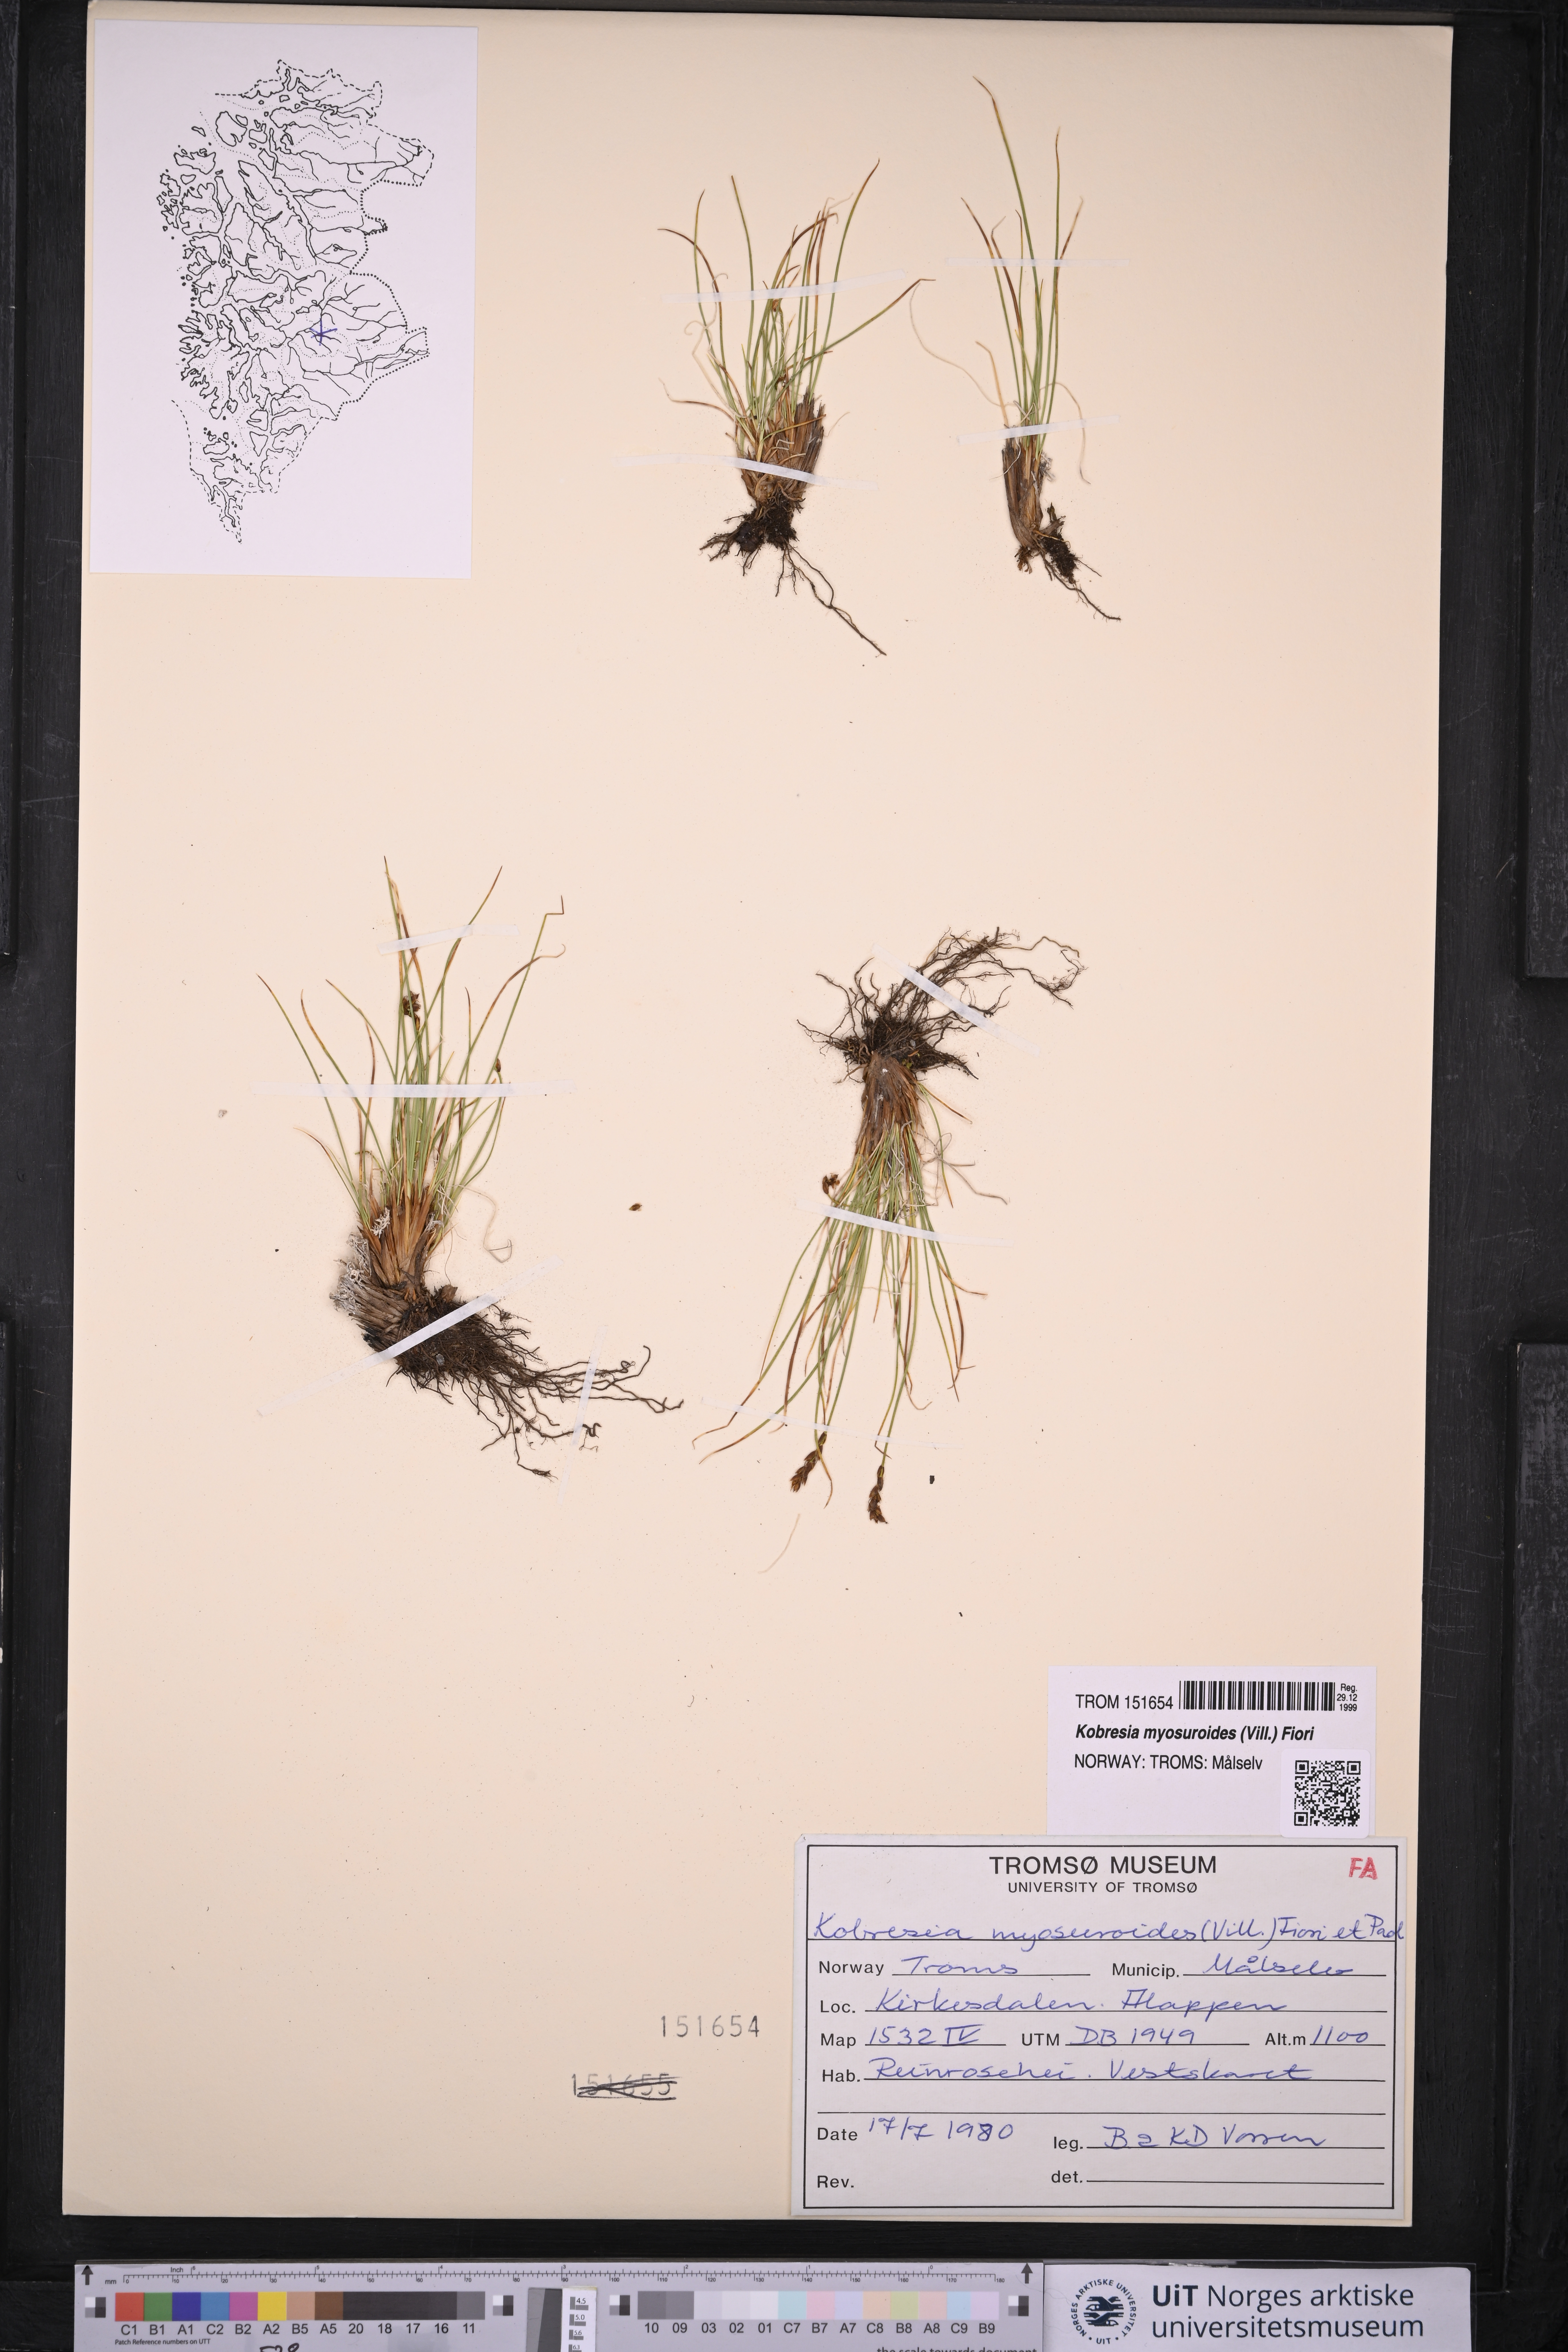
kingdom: Plantae
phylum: Tracheophyta
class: Liliopsida
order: Poales
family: Cyperaceae
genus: Carex
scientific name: Carex myosuroides
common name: Bellard's bog sedge
